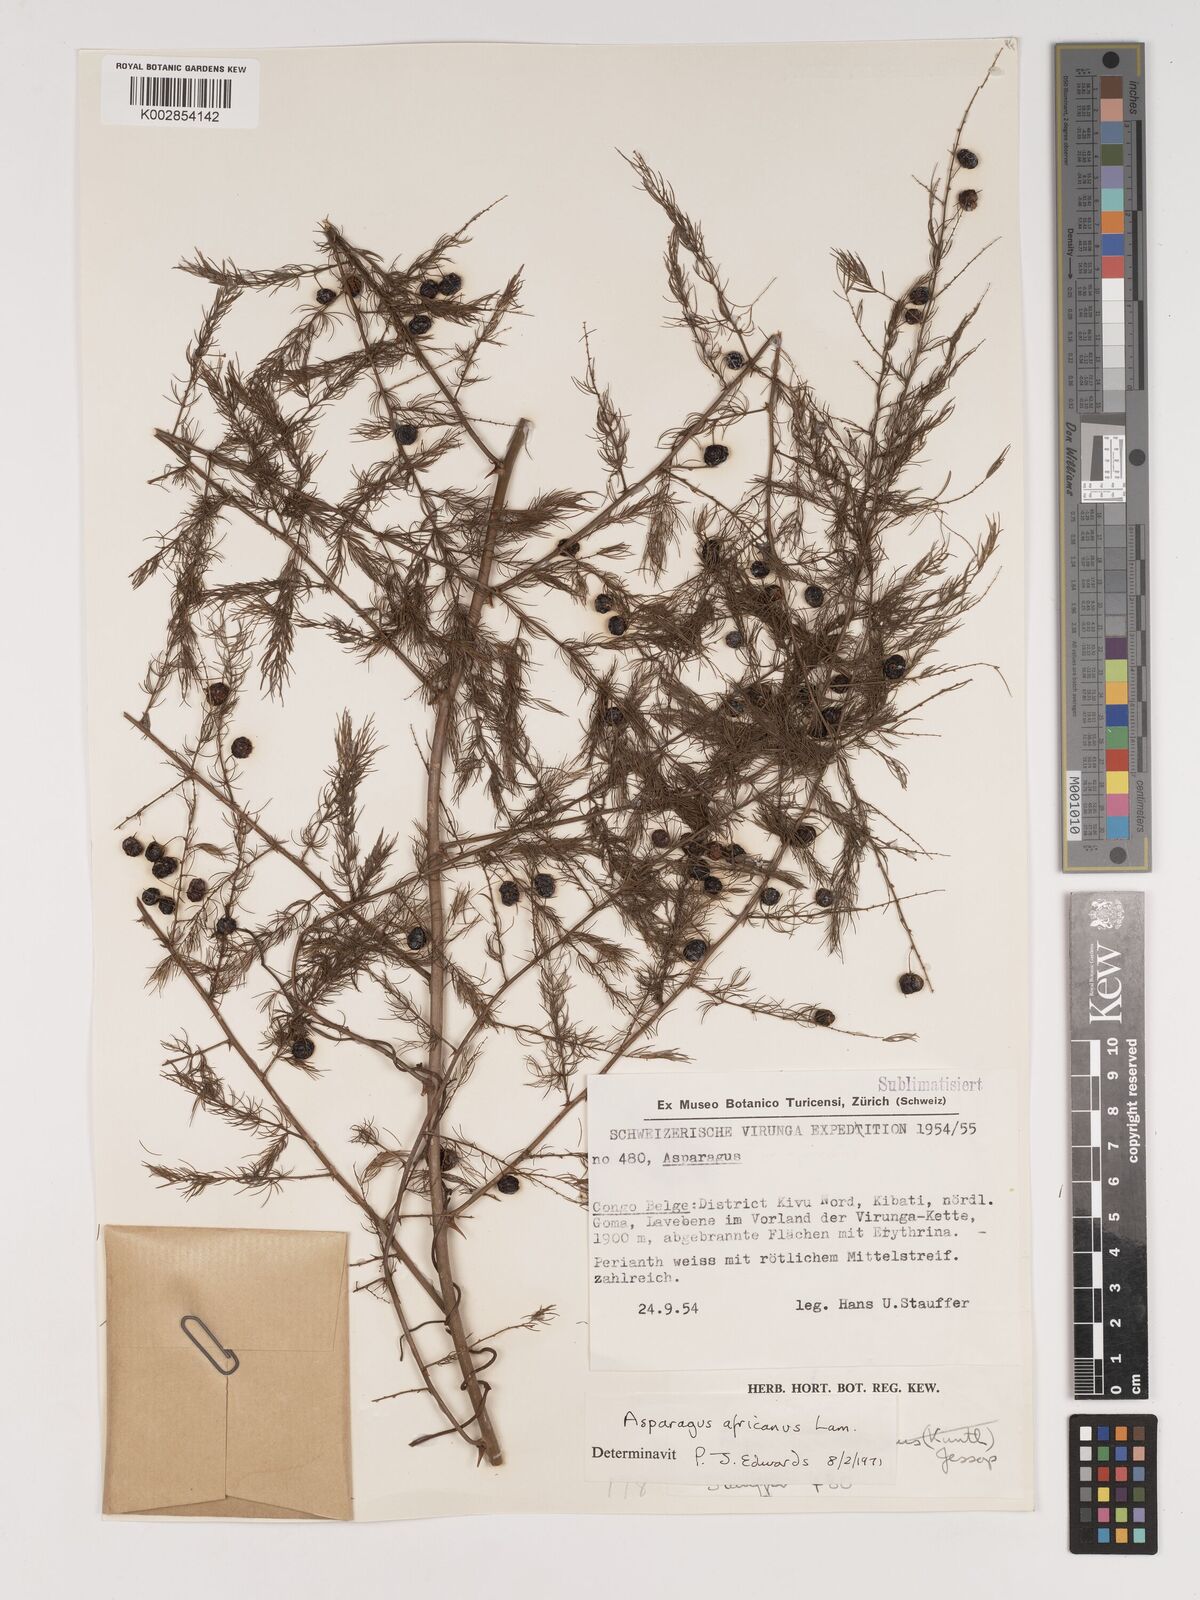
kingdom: Plantae
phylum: Tracheophyta
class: Liliopsida
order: Asparagales
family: Asparagaceae
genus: Asparagus
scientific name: Asparagus africanus
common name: Asparagus-fern
